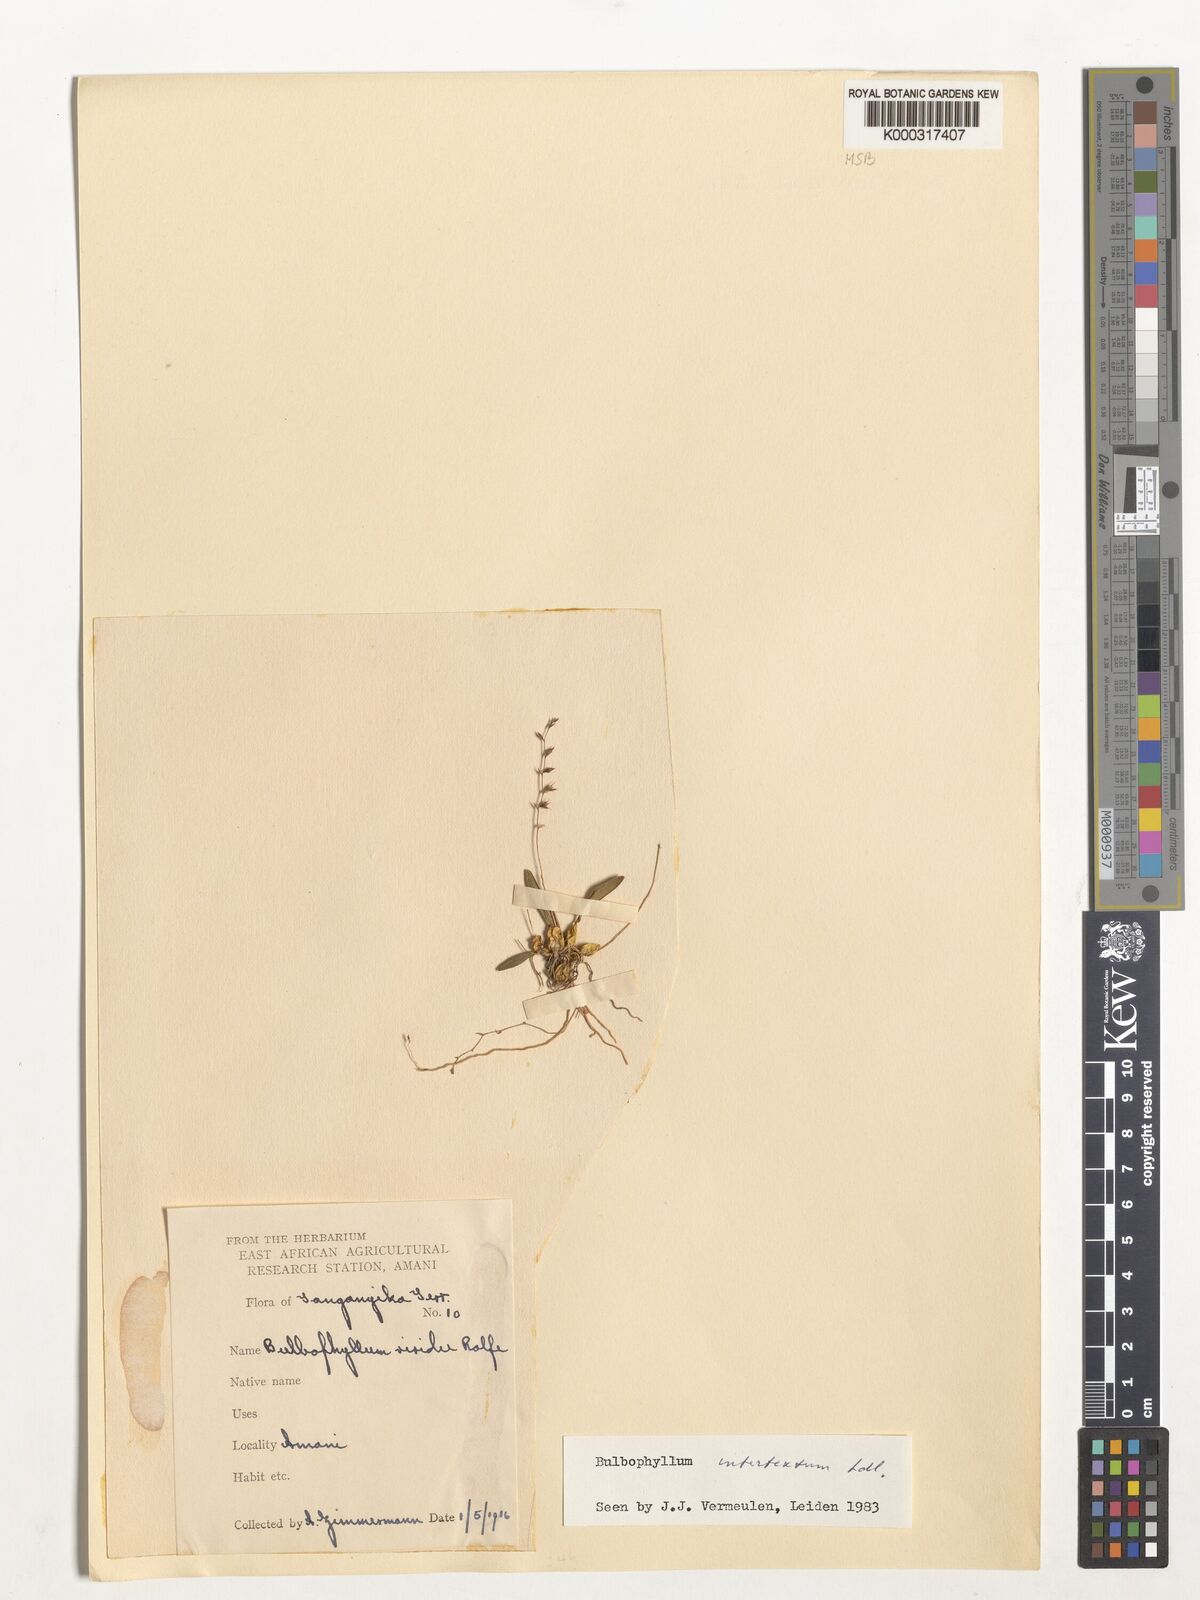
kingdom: Plantae
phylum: Tracheophyta
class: Liliopsida
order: Asparagales
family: Orchidaceae
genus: Bulbophyllum
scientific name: Bulbophyllum intertextum
